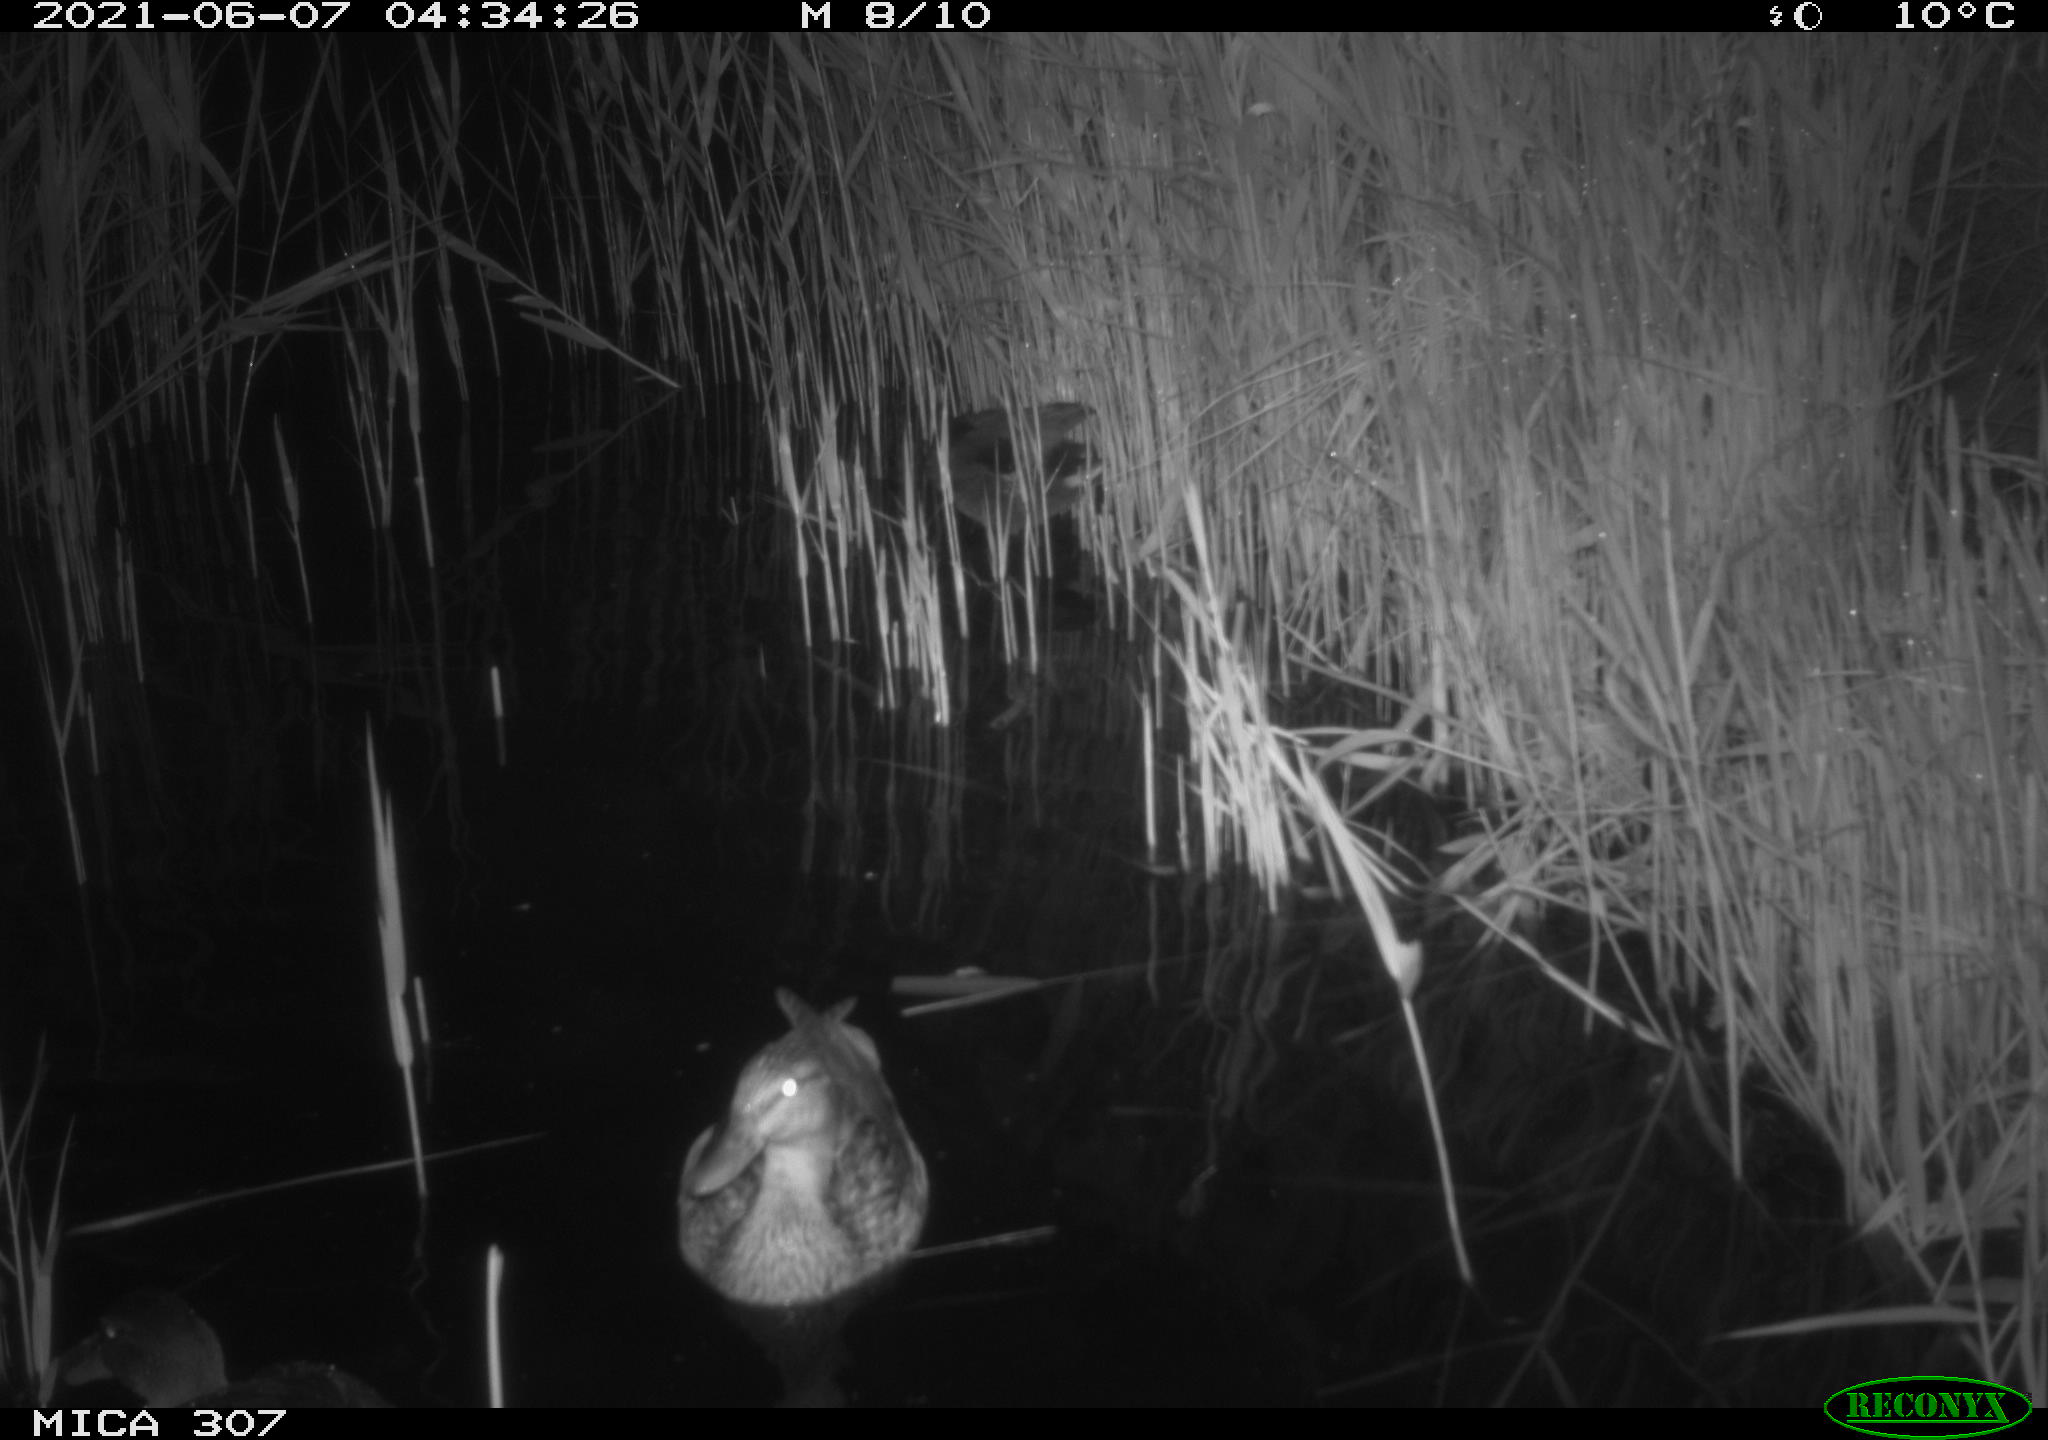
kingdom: Animalia
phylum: Chordata
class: Aves
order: Anseriformes
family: Anatidae
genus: Mareca
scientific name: Mareca strepera
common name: Gadwall
